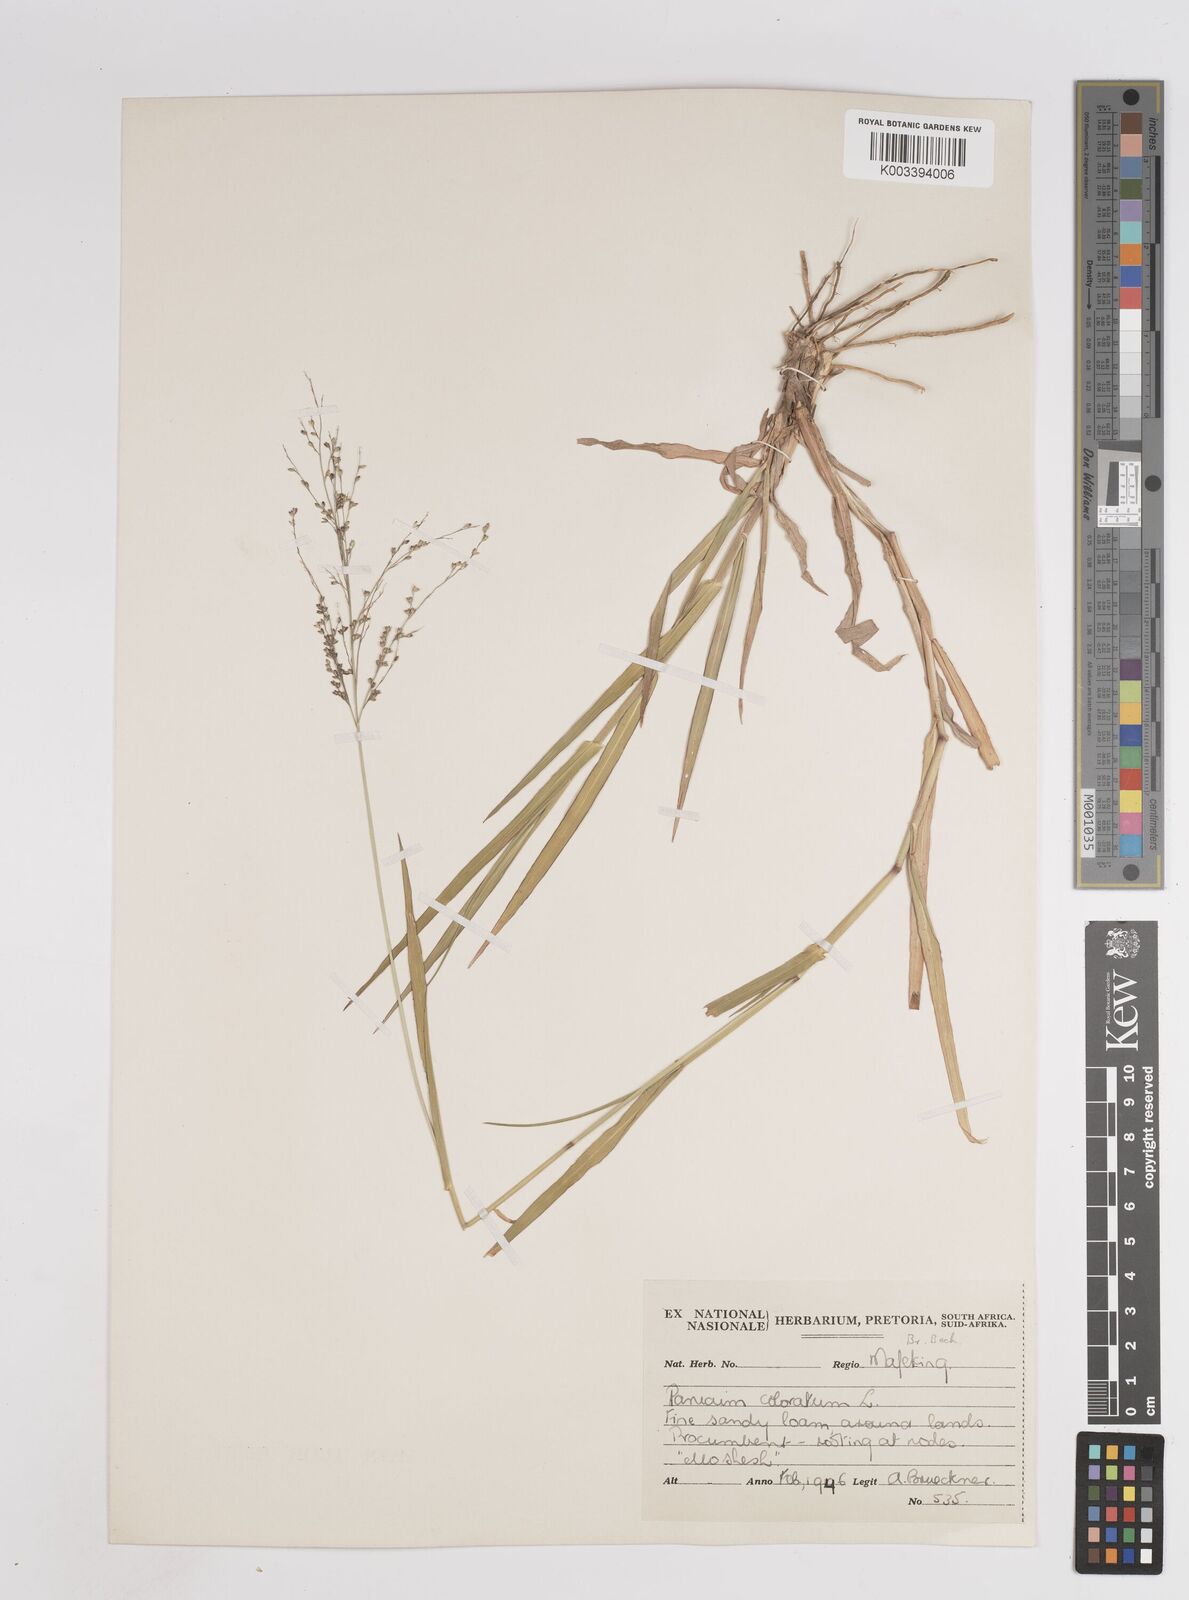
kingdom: Plantae
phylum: Tracheophyta
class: Liliopsida
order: Poales
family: Poaceae
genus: Panicum
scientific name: Panicum coloratum
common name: Kleingrass
